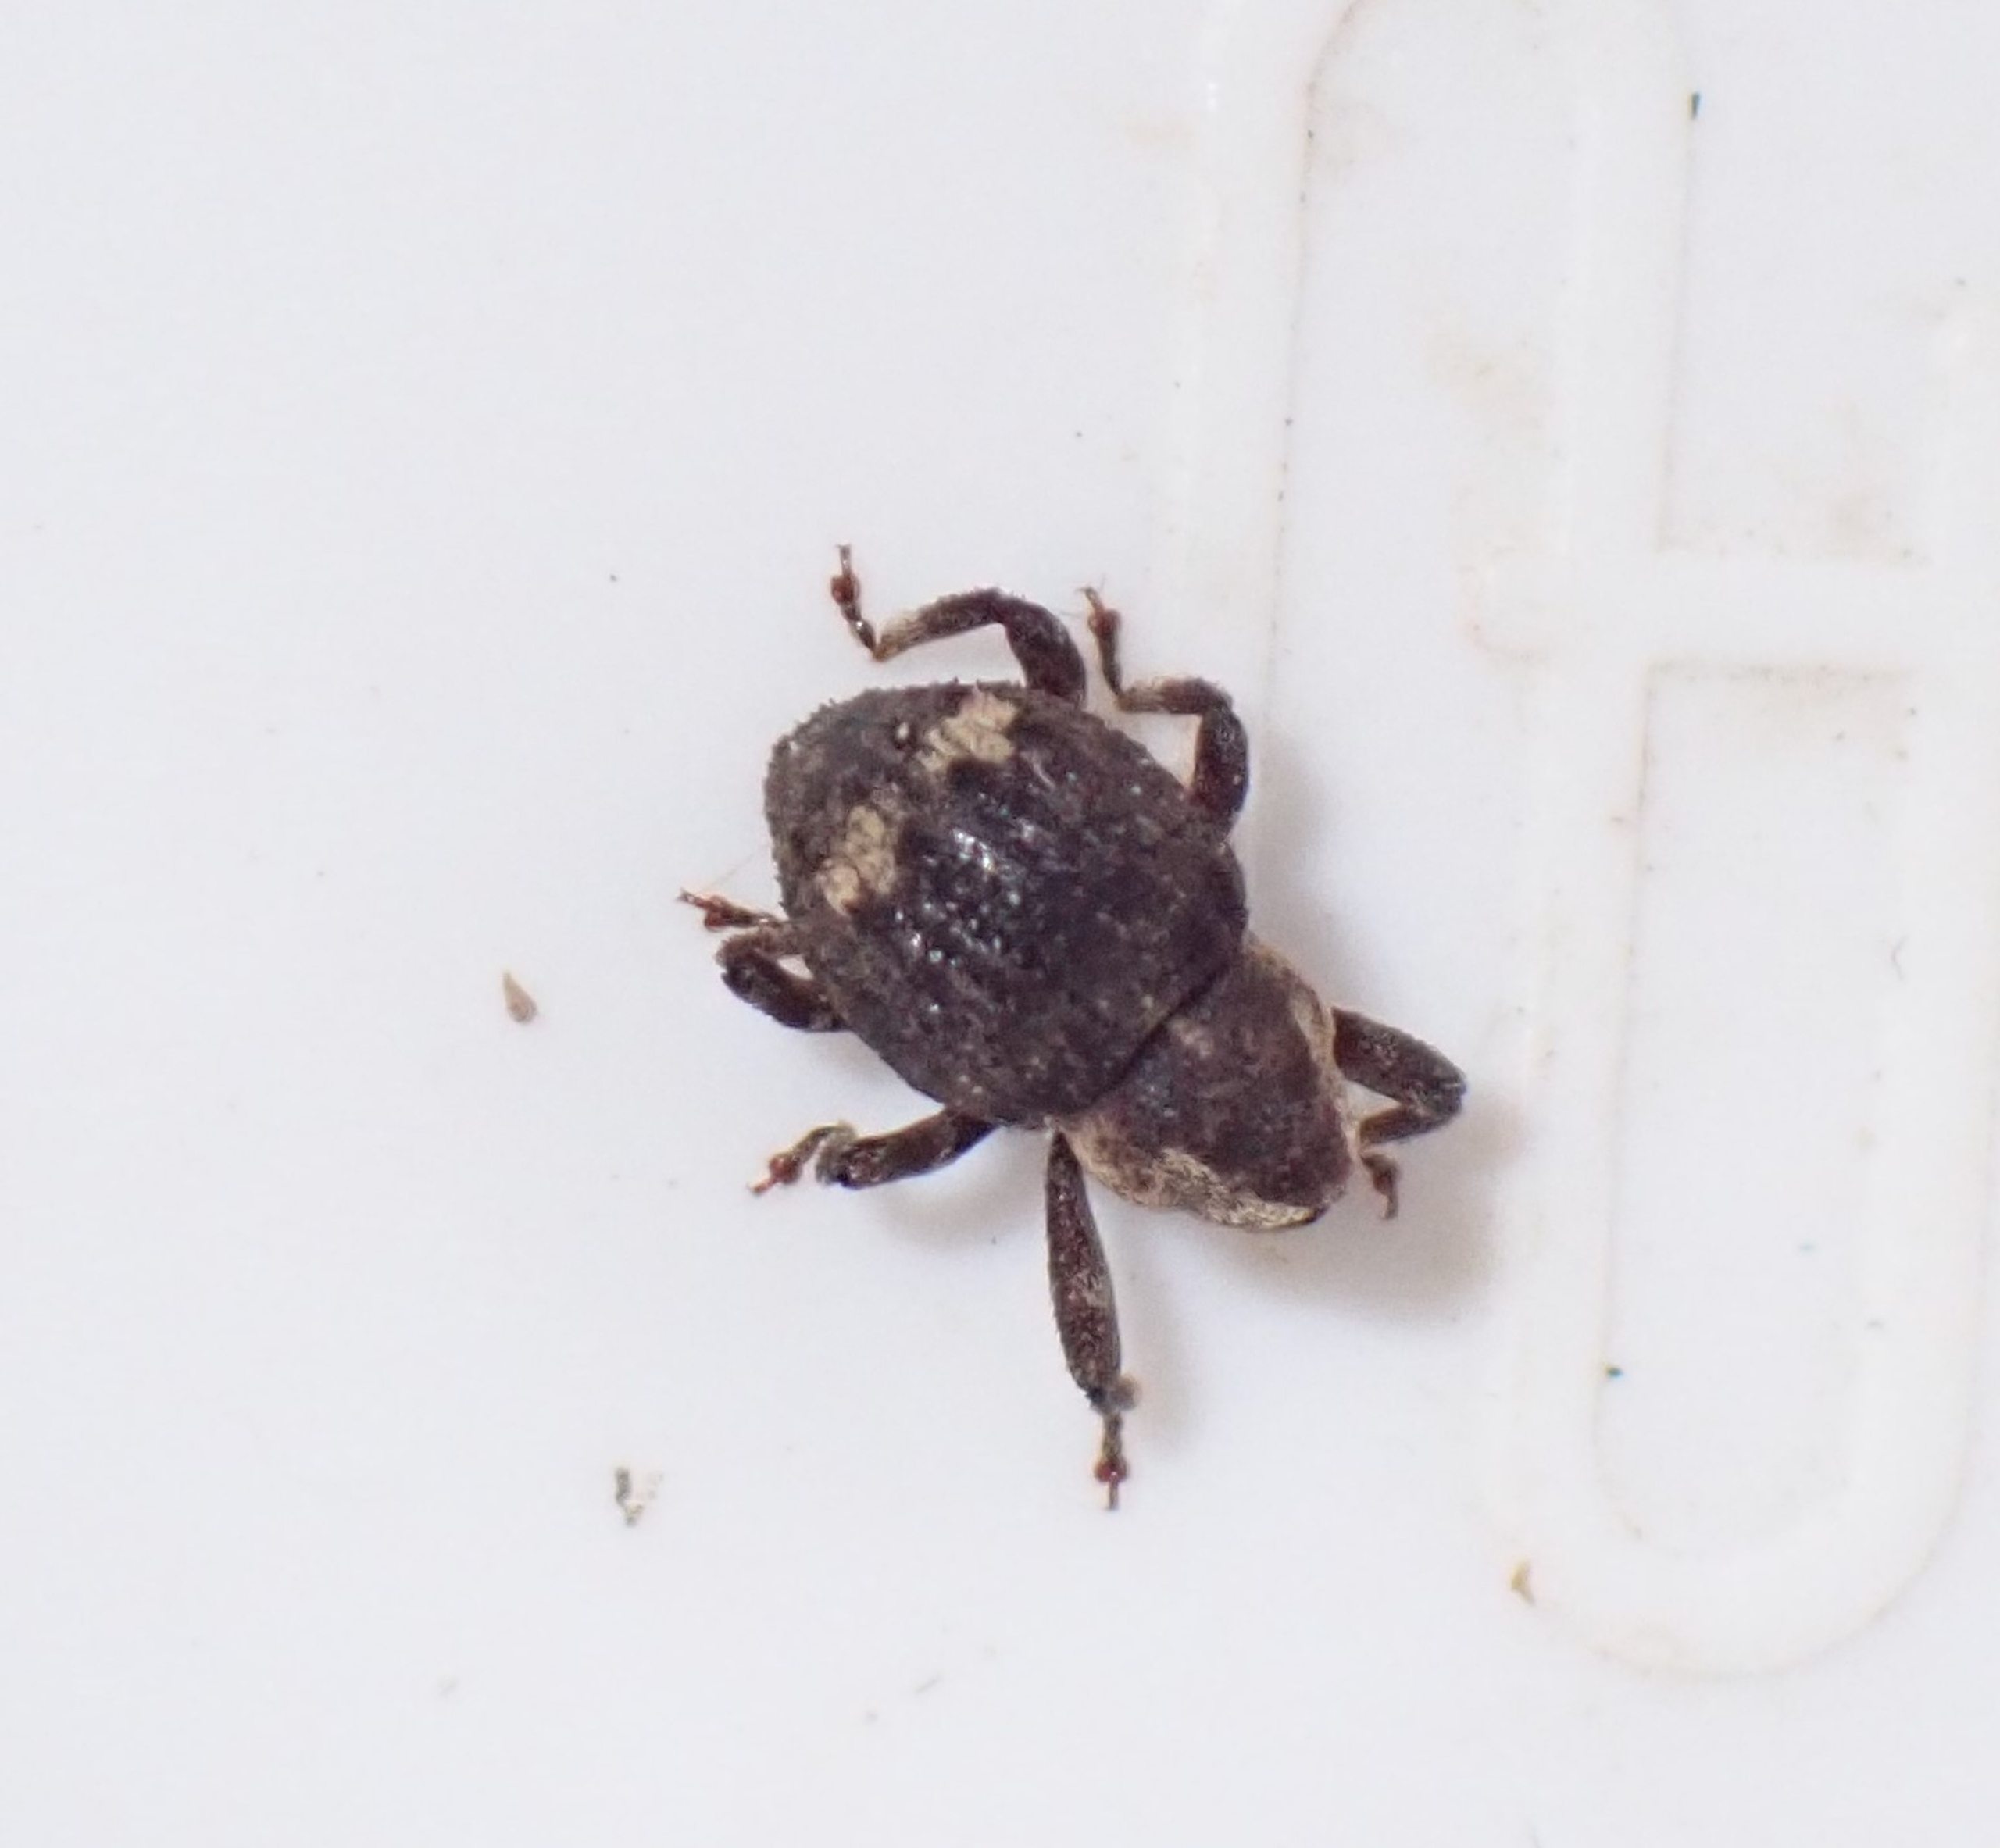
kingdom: Animalia
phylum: Arthropoda
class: Insecta
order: Coleoptera
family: Curculionidae
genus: Echinodera
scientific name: Echinodera hypocrita
